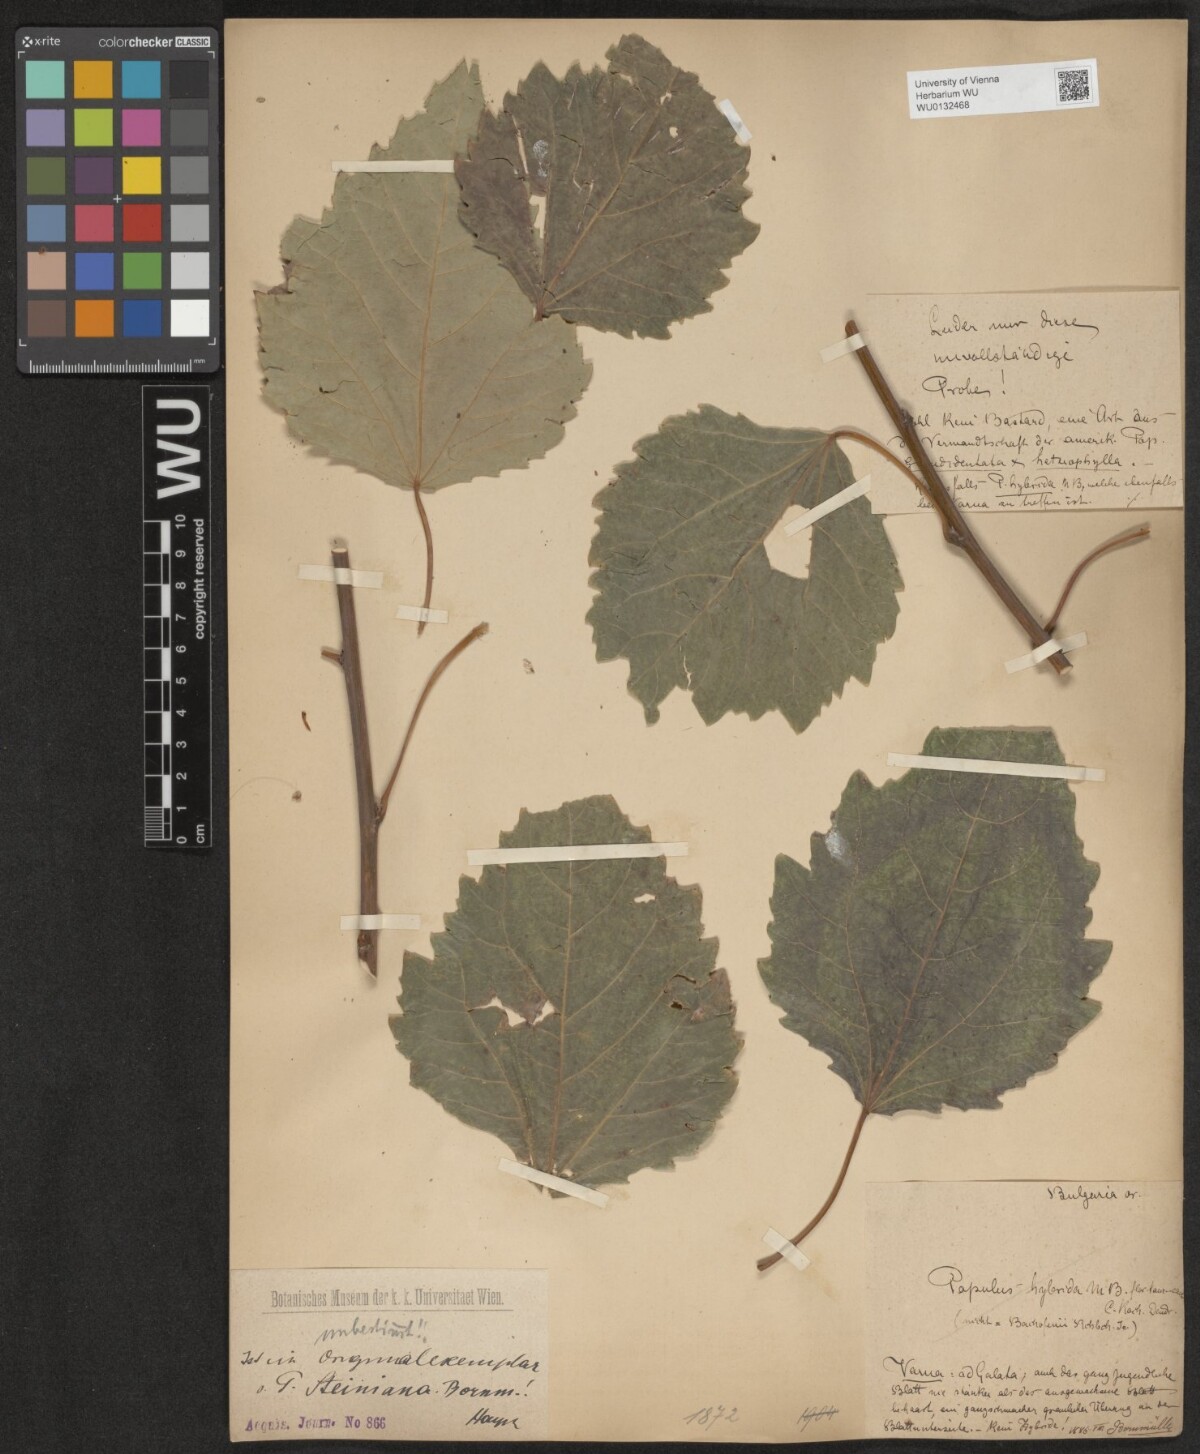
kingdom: Plantae
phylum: Tracheophyta
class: Magnoliopsida
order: Malpighiales
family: Salicaceae
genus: Populus
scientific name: Populus
